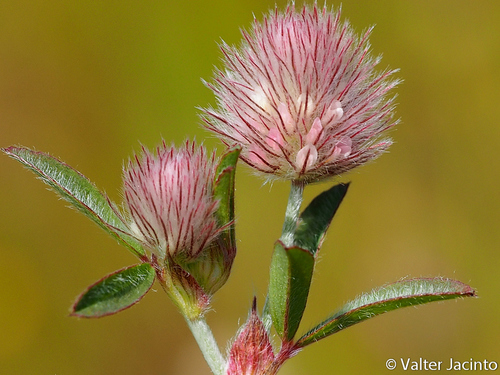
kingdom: Plantae
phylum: Tracheophyta
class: Magnoliopsida
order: Fabales
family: Fabaceae
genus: Trifolium
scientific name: Trifolium arvense
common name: Hare's-foot clover
